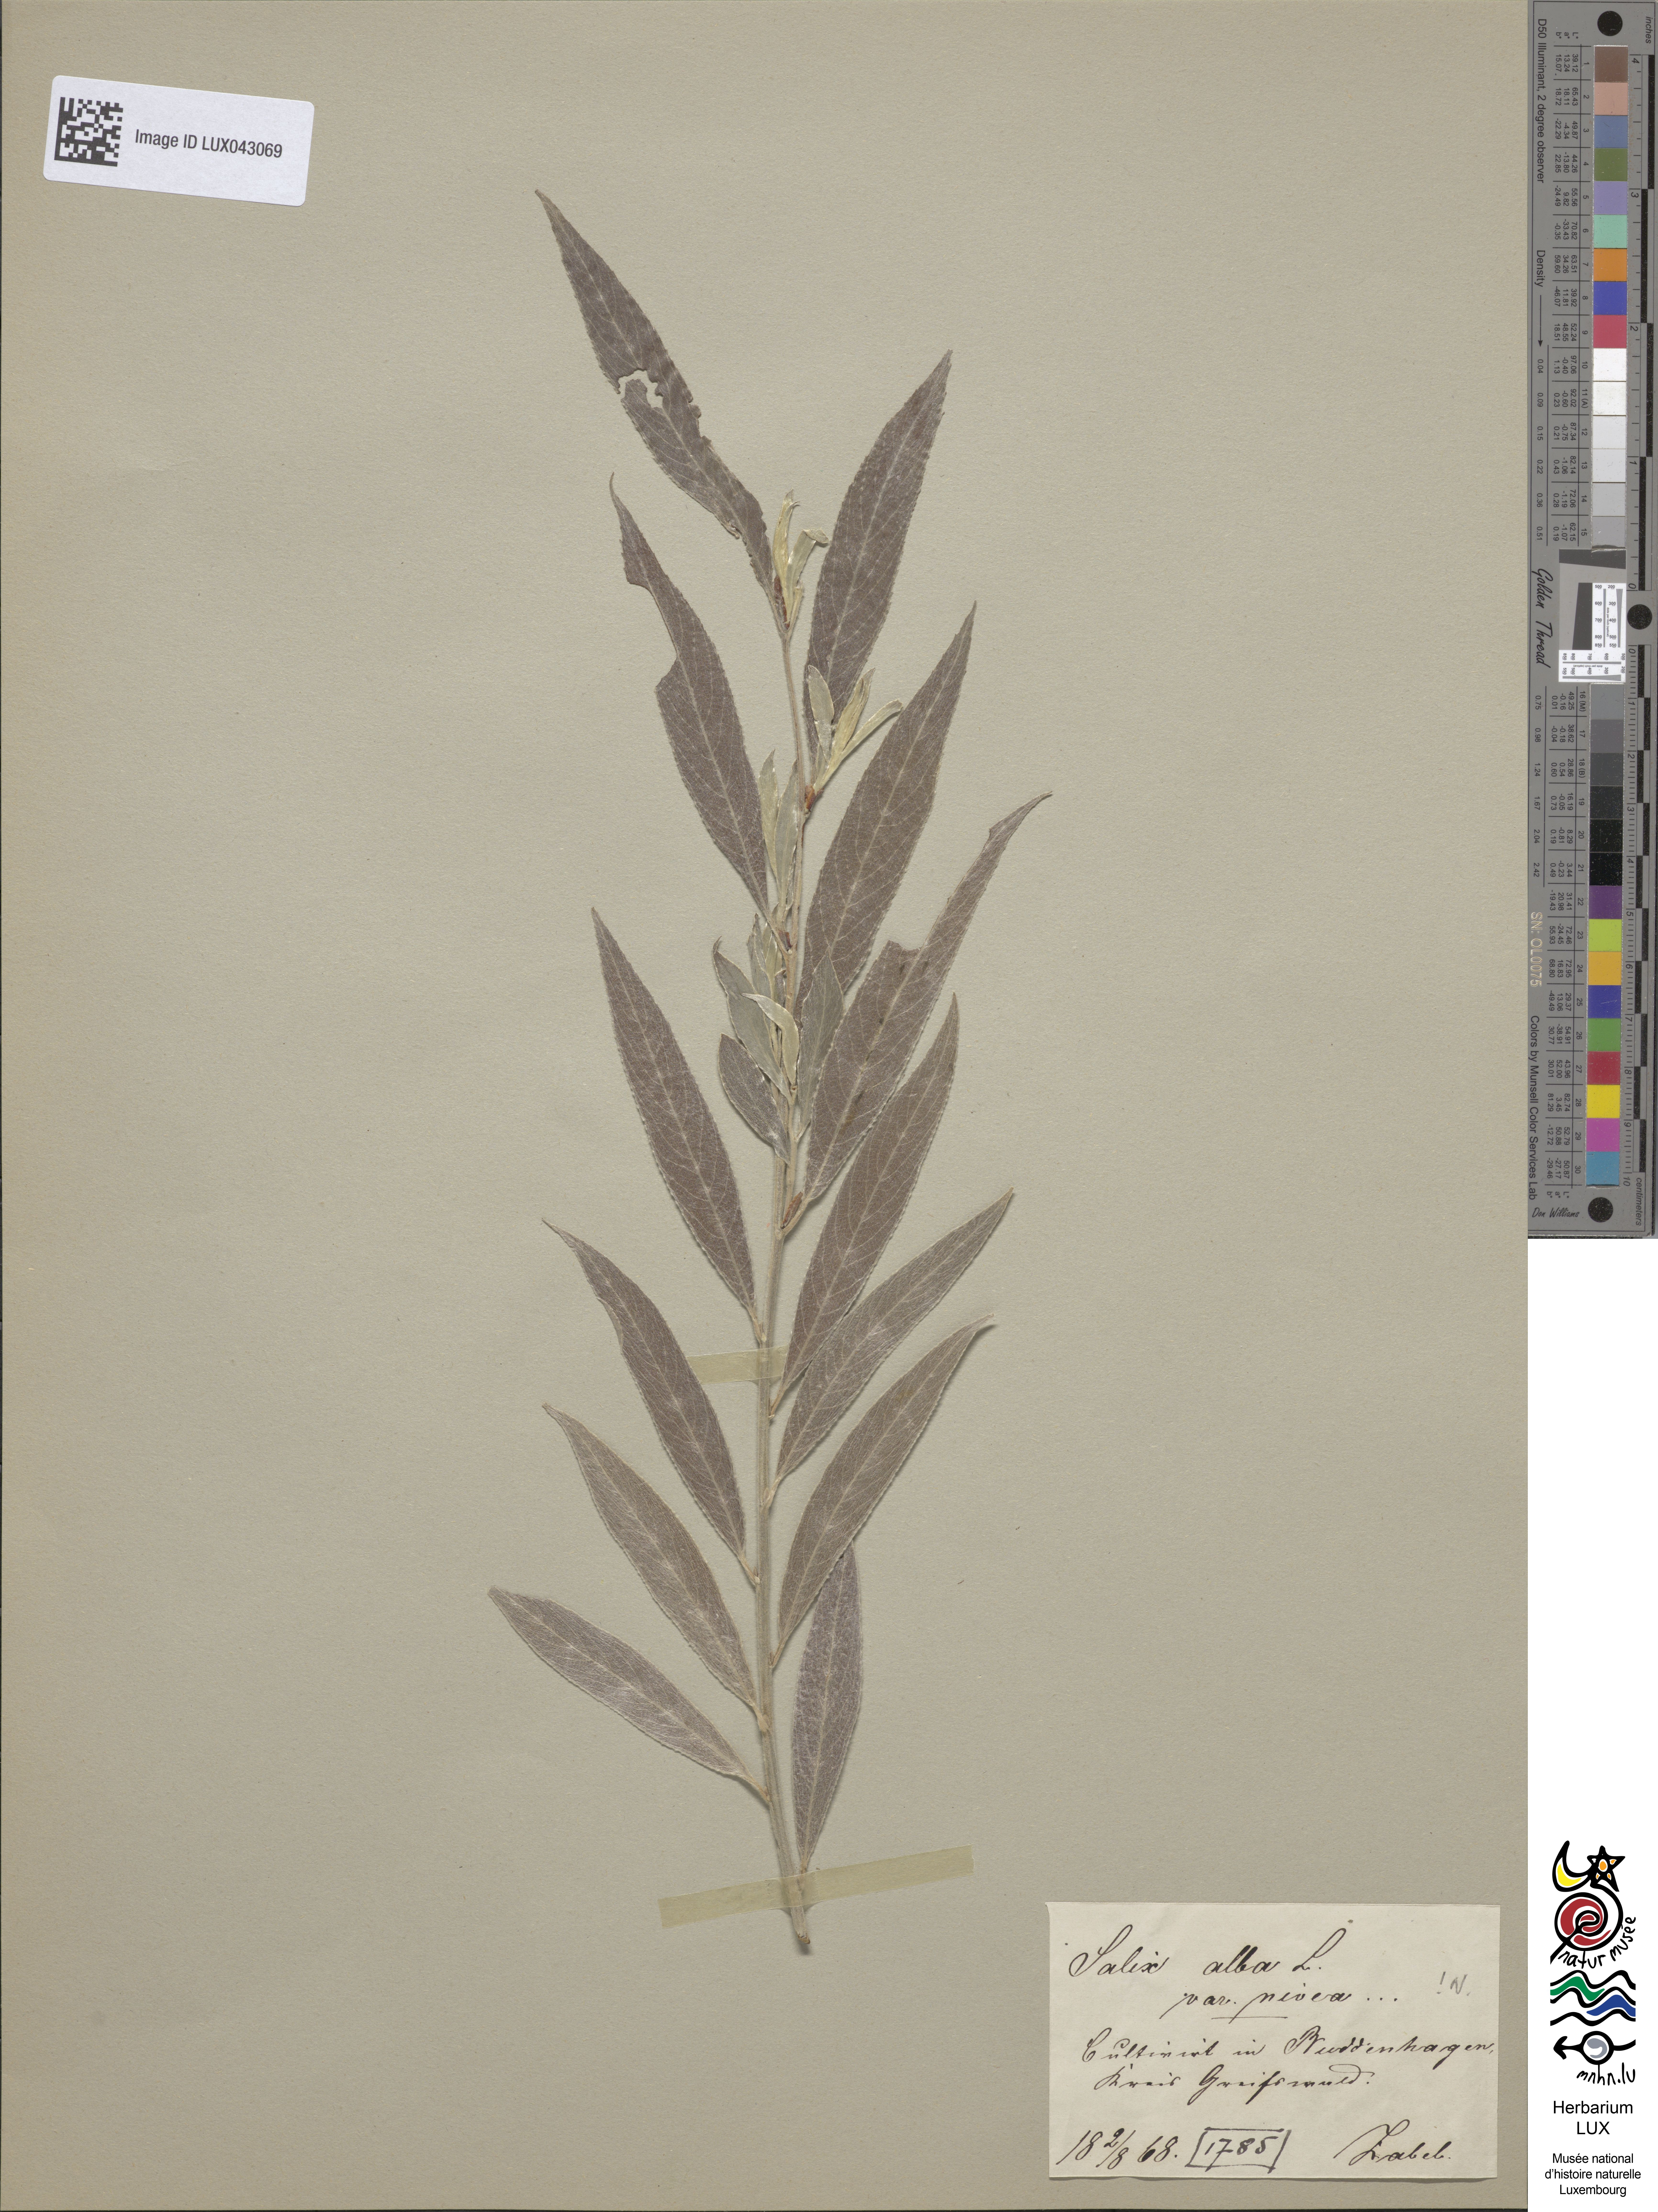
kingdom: Plantae
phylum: Tracheophyta
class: Magnoliopsida
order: Malpighiales
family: Salicaceae
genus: Salix
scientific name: Salix alba
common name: White willow
